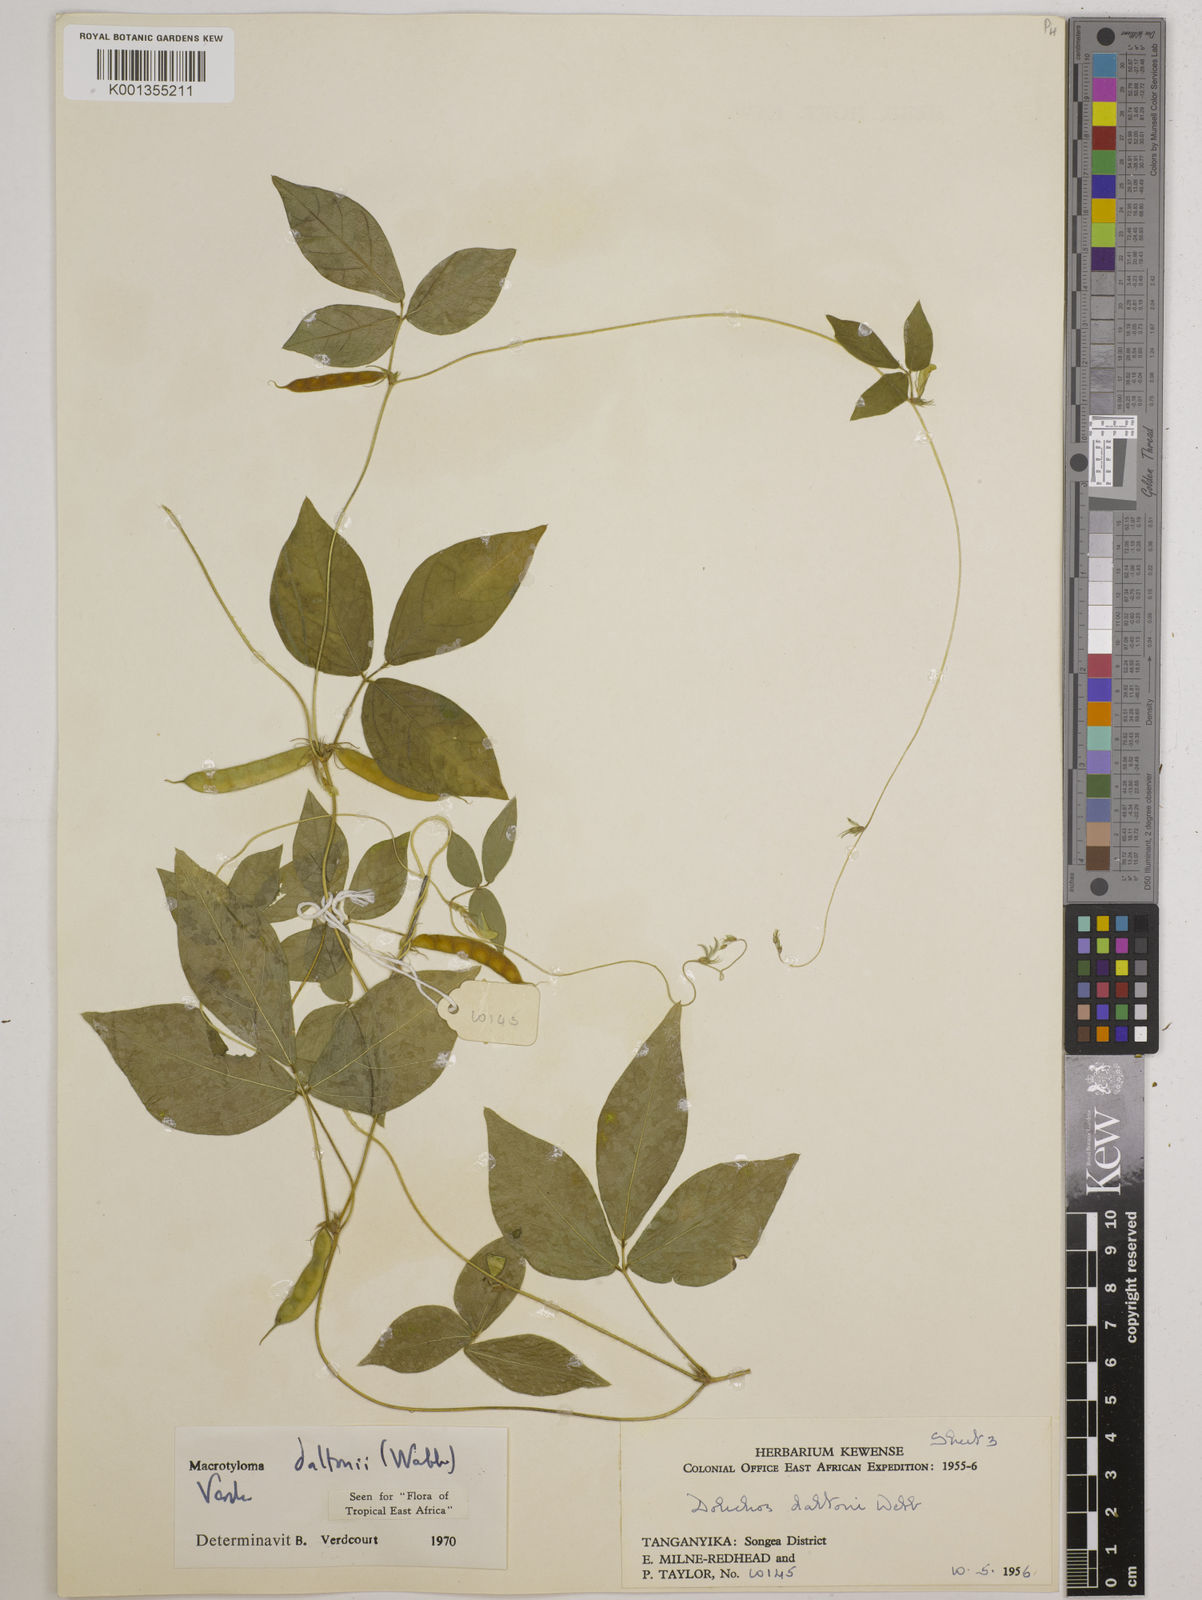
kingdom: Plantae
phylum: Tracheophyta
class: Magnoliopsida
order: Fabales
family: Fabaceae
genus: Macrotyloma
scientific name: Macrotyloma daltonii
